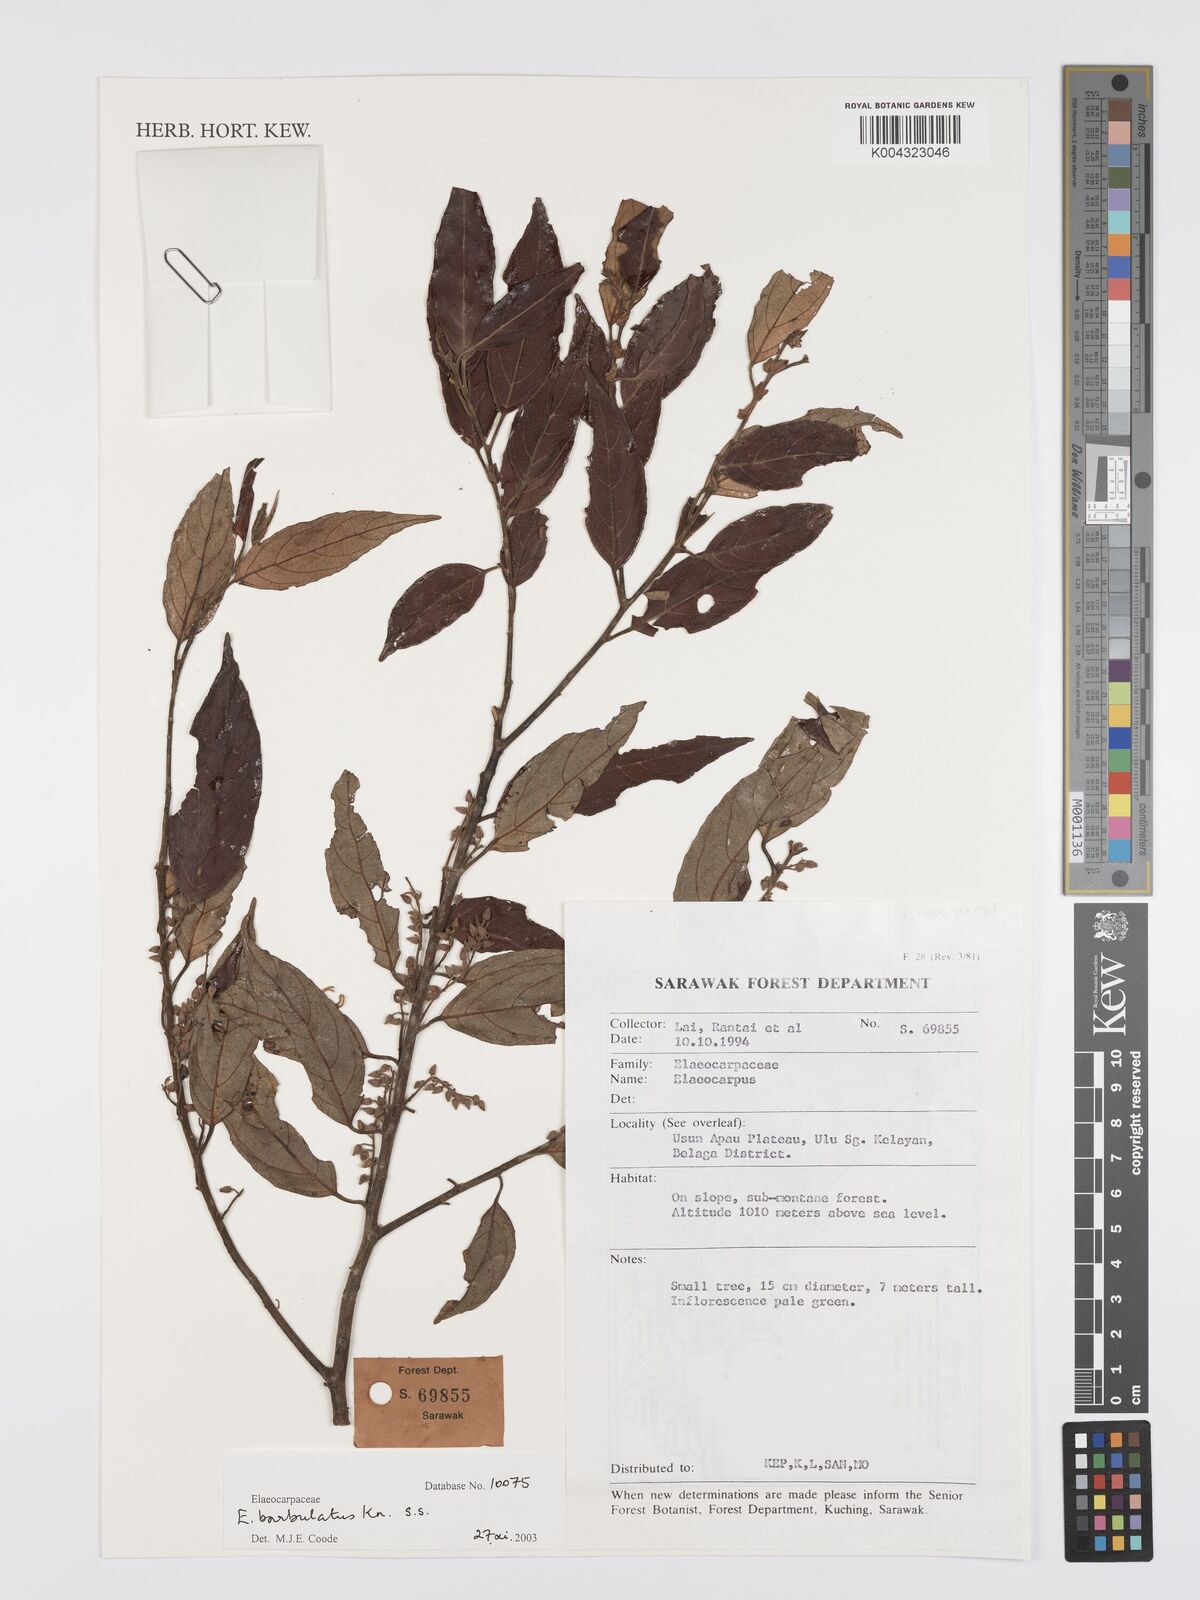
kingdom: Plantae
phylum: Tracheophyta
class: Magnoliopsida
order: Oxalidales
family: Elaeocarpaceae
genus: Elaeocarpus
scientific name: Elaeocarpus barbulatus
